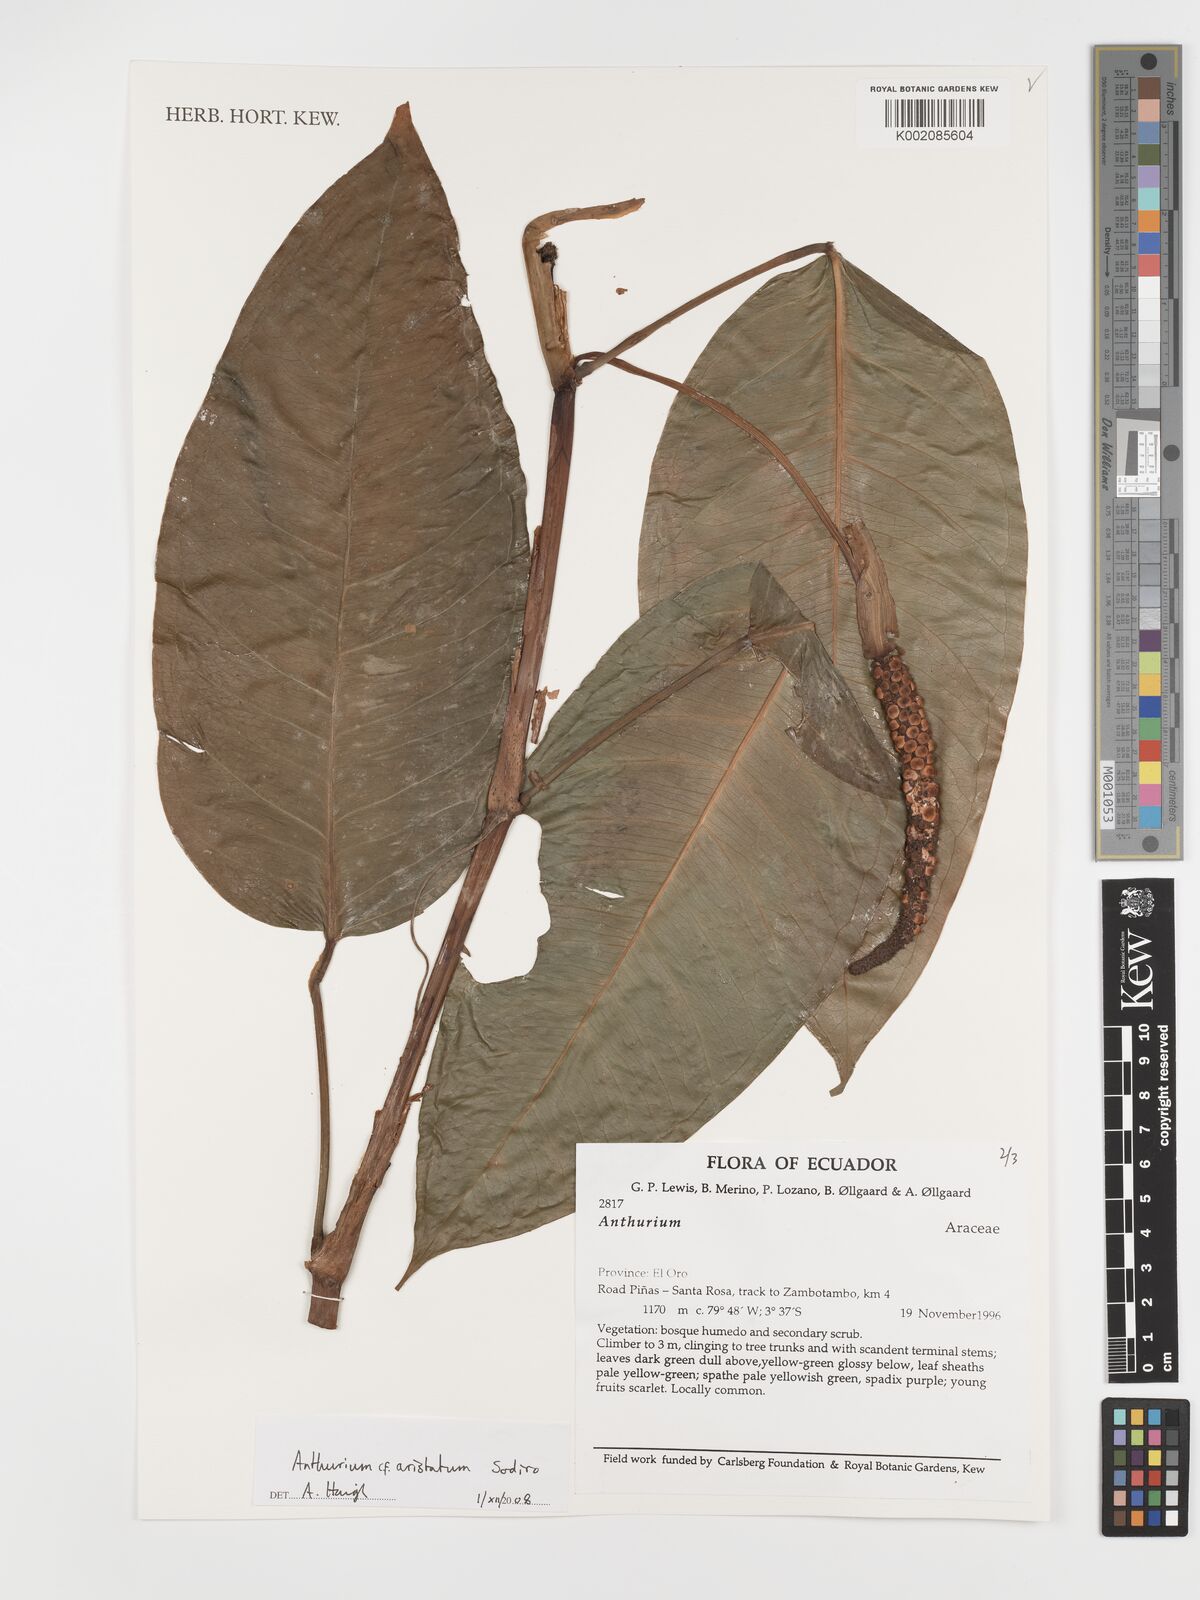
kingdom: Plantae
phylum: Tracheophyta
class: Liliopsida
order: Alismatales
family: Araceae
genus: Anthurium
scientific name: Anthurium aristatum
